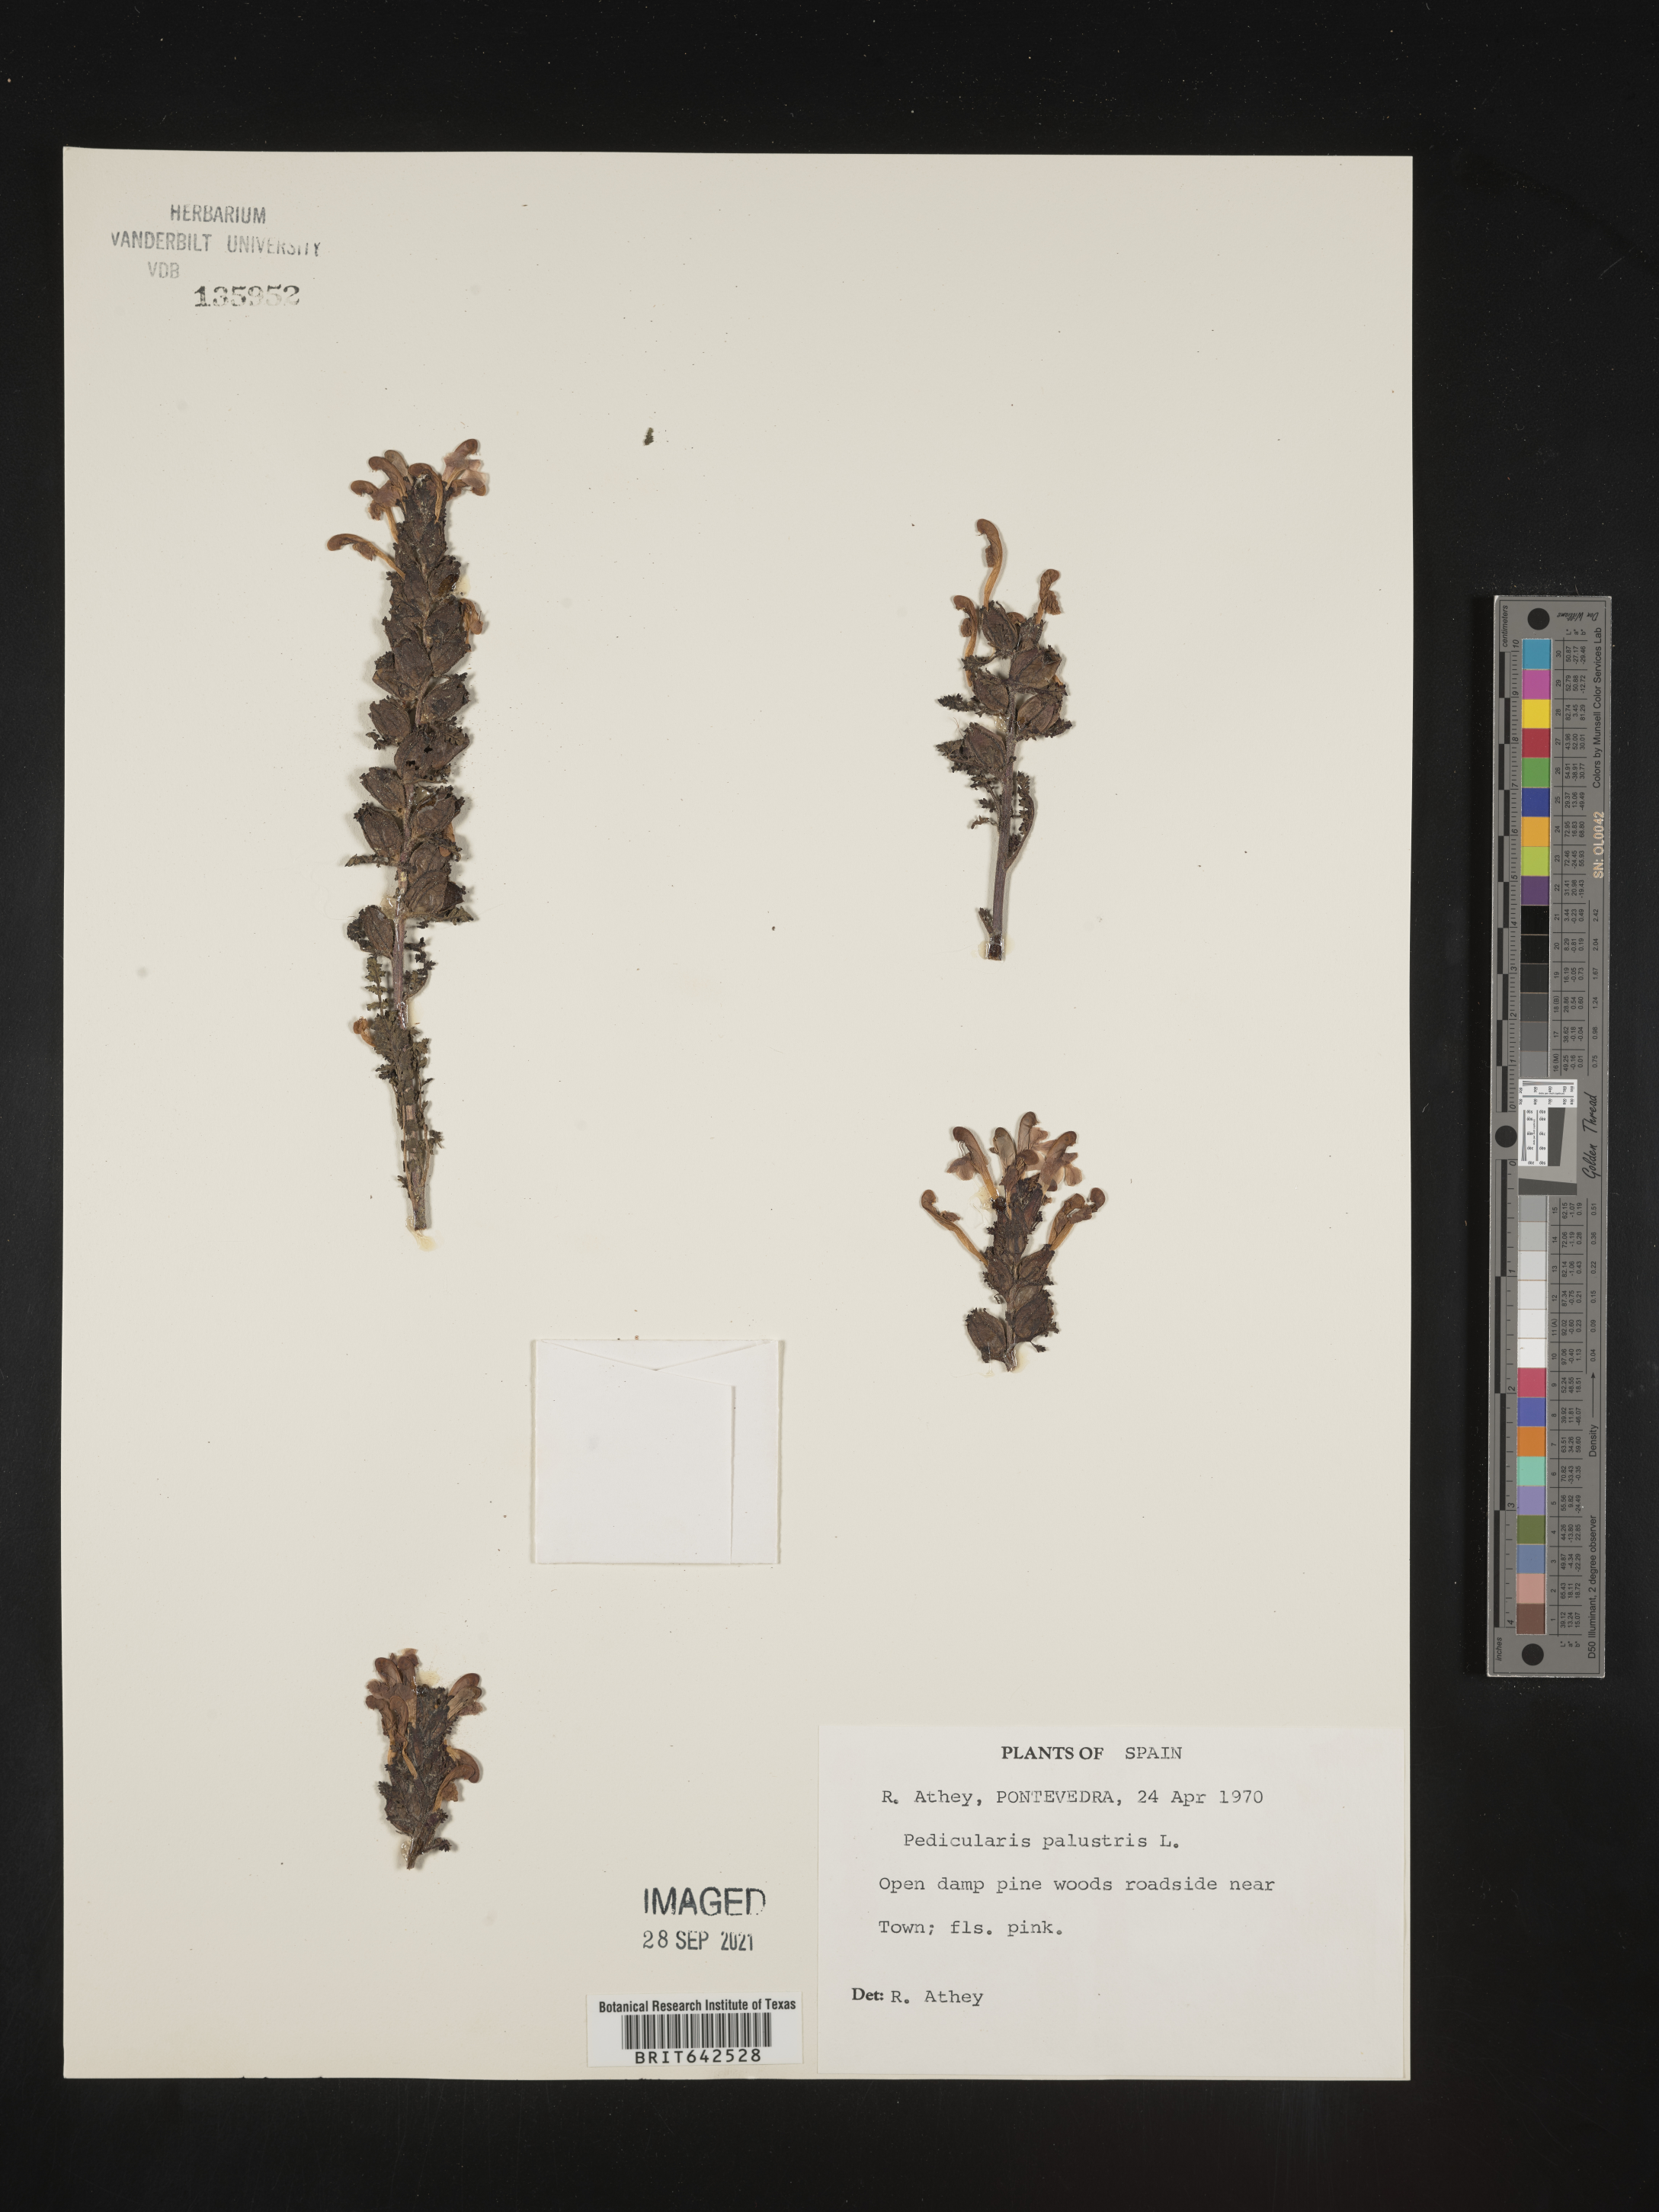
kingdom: Plantae
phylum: Tracheophyta
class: Magnoliopsida
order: Lamiales
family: Orobanchaceae
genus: Pedicularis
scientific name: Pedicularis
